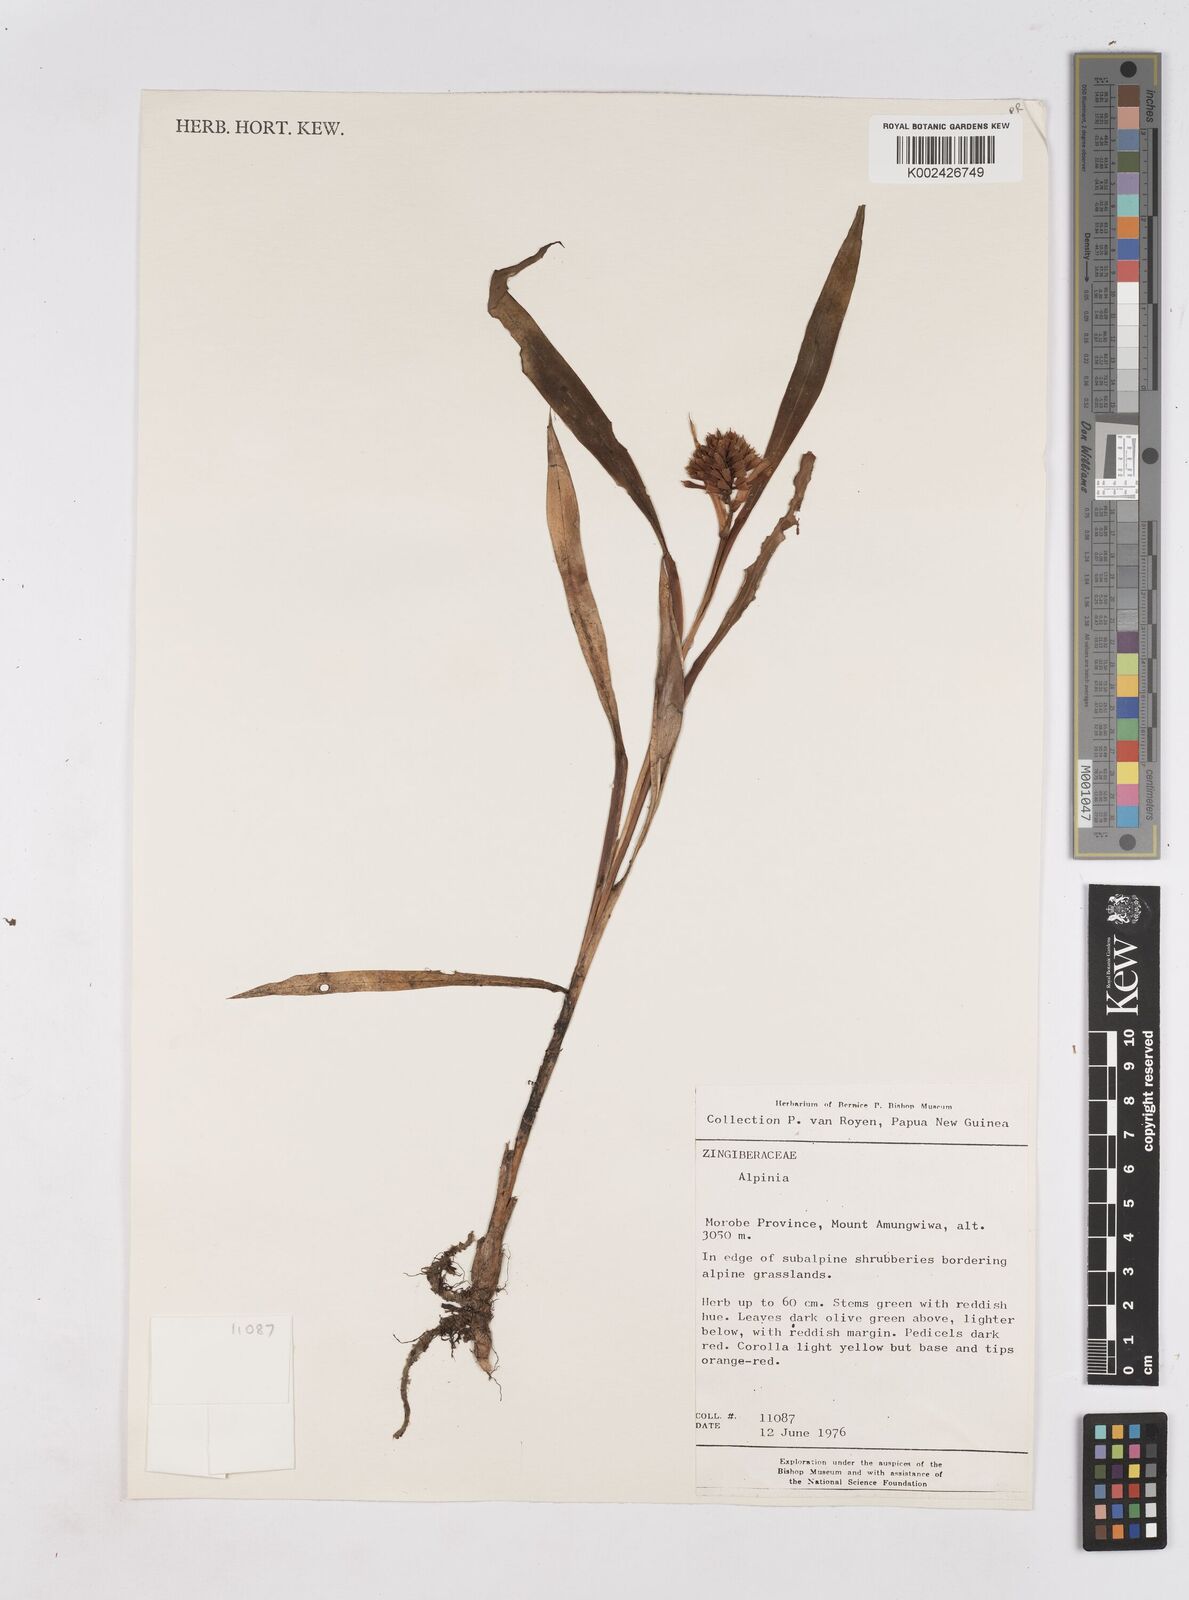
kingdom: Plantae
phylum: Tracheophyta
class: Liliopsida
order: Zingiberales
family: Zingiberaceae
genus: Riedelia
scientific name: Riedelia
